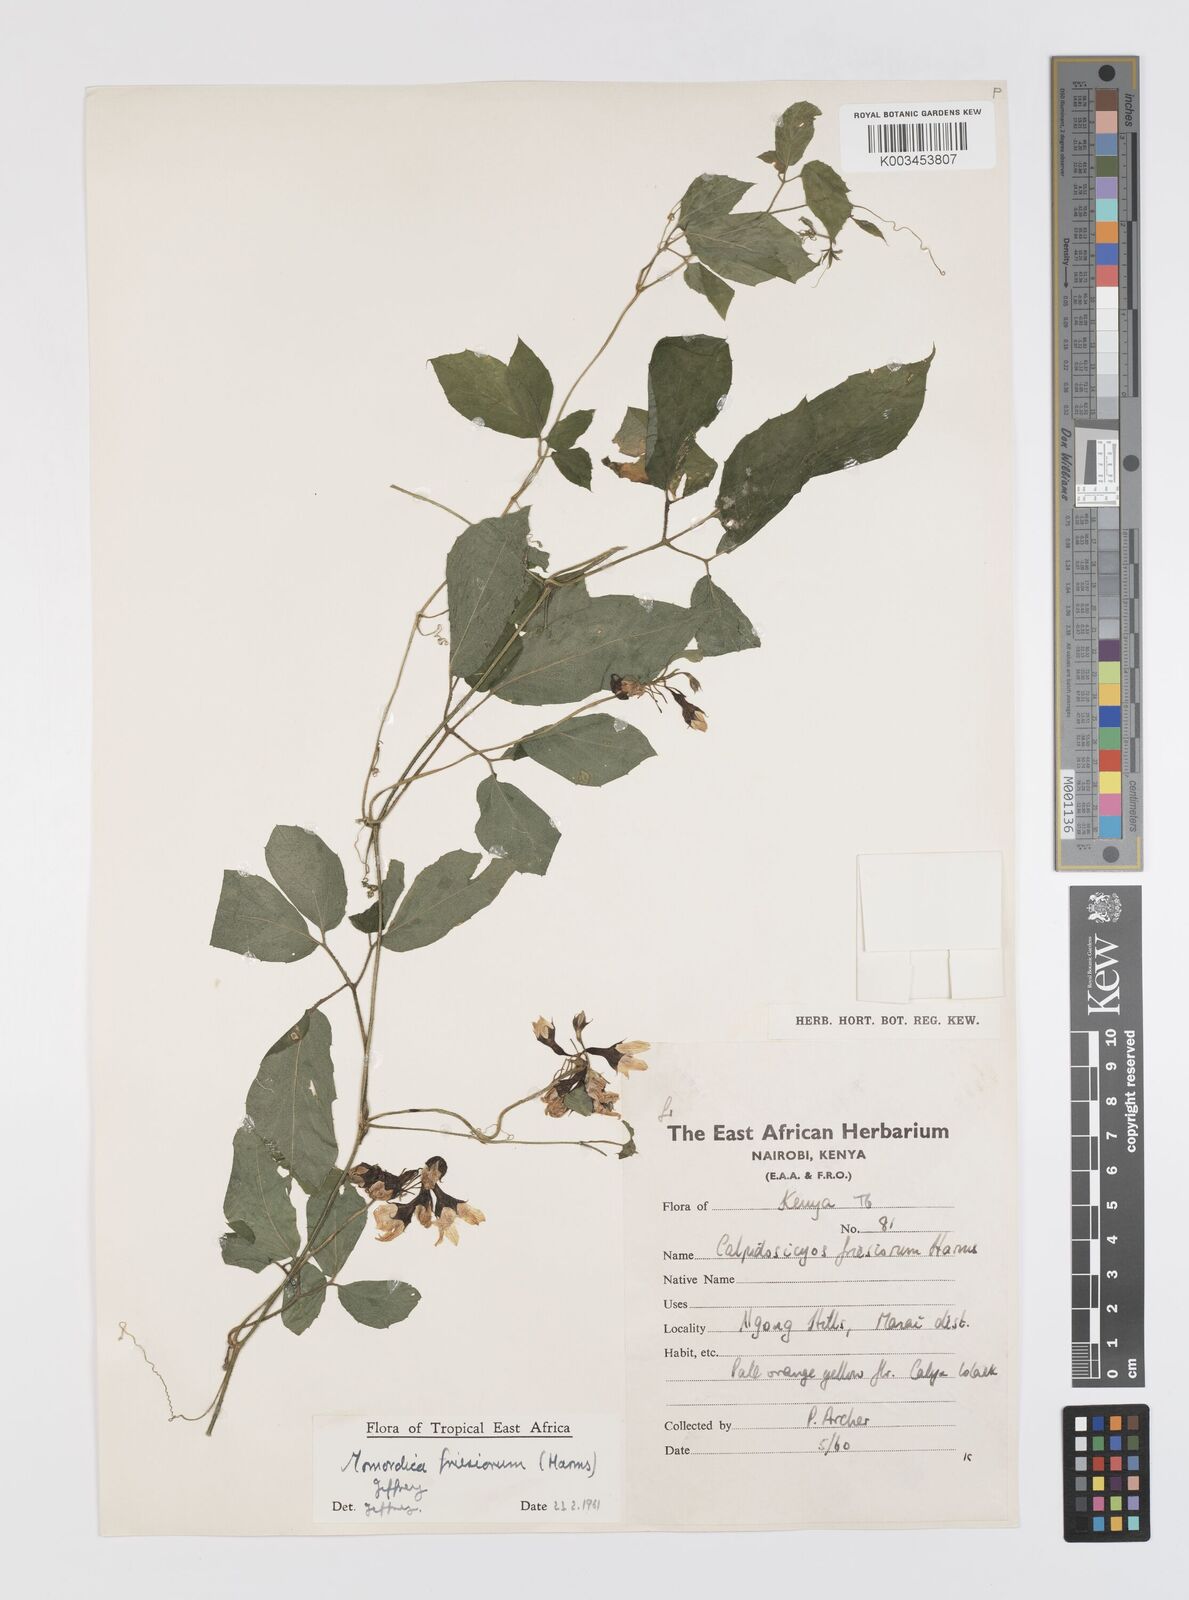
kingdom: Plantae
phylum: Tracheophyta
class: Magnoliopsida
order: Cucurbitales
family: Cucurbitaceae
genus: Momordica
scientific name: Momordica friesiorum
